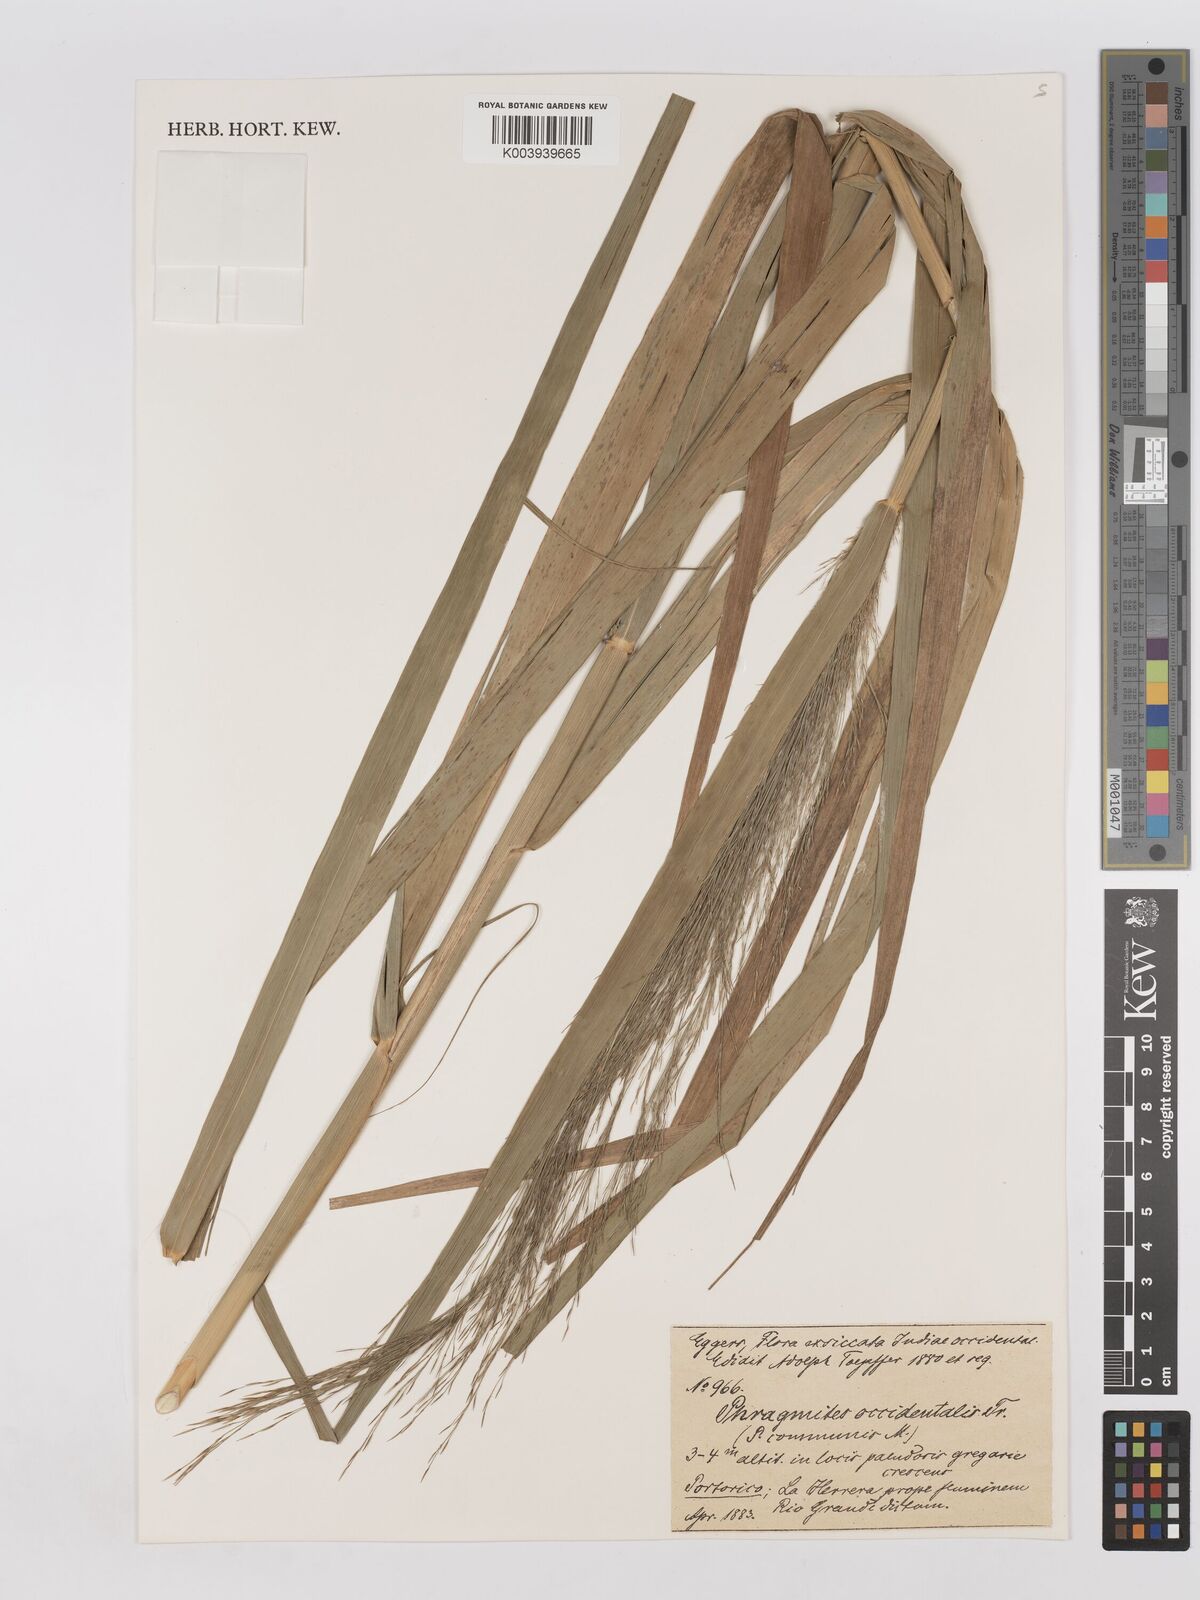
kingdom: Plantae
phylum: Tracheophyta
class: Liliopsida
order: Poales
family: Poaceae
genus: Phragmites
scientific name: Phragmites australis
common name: Common reed
